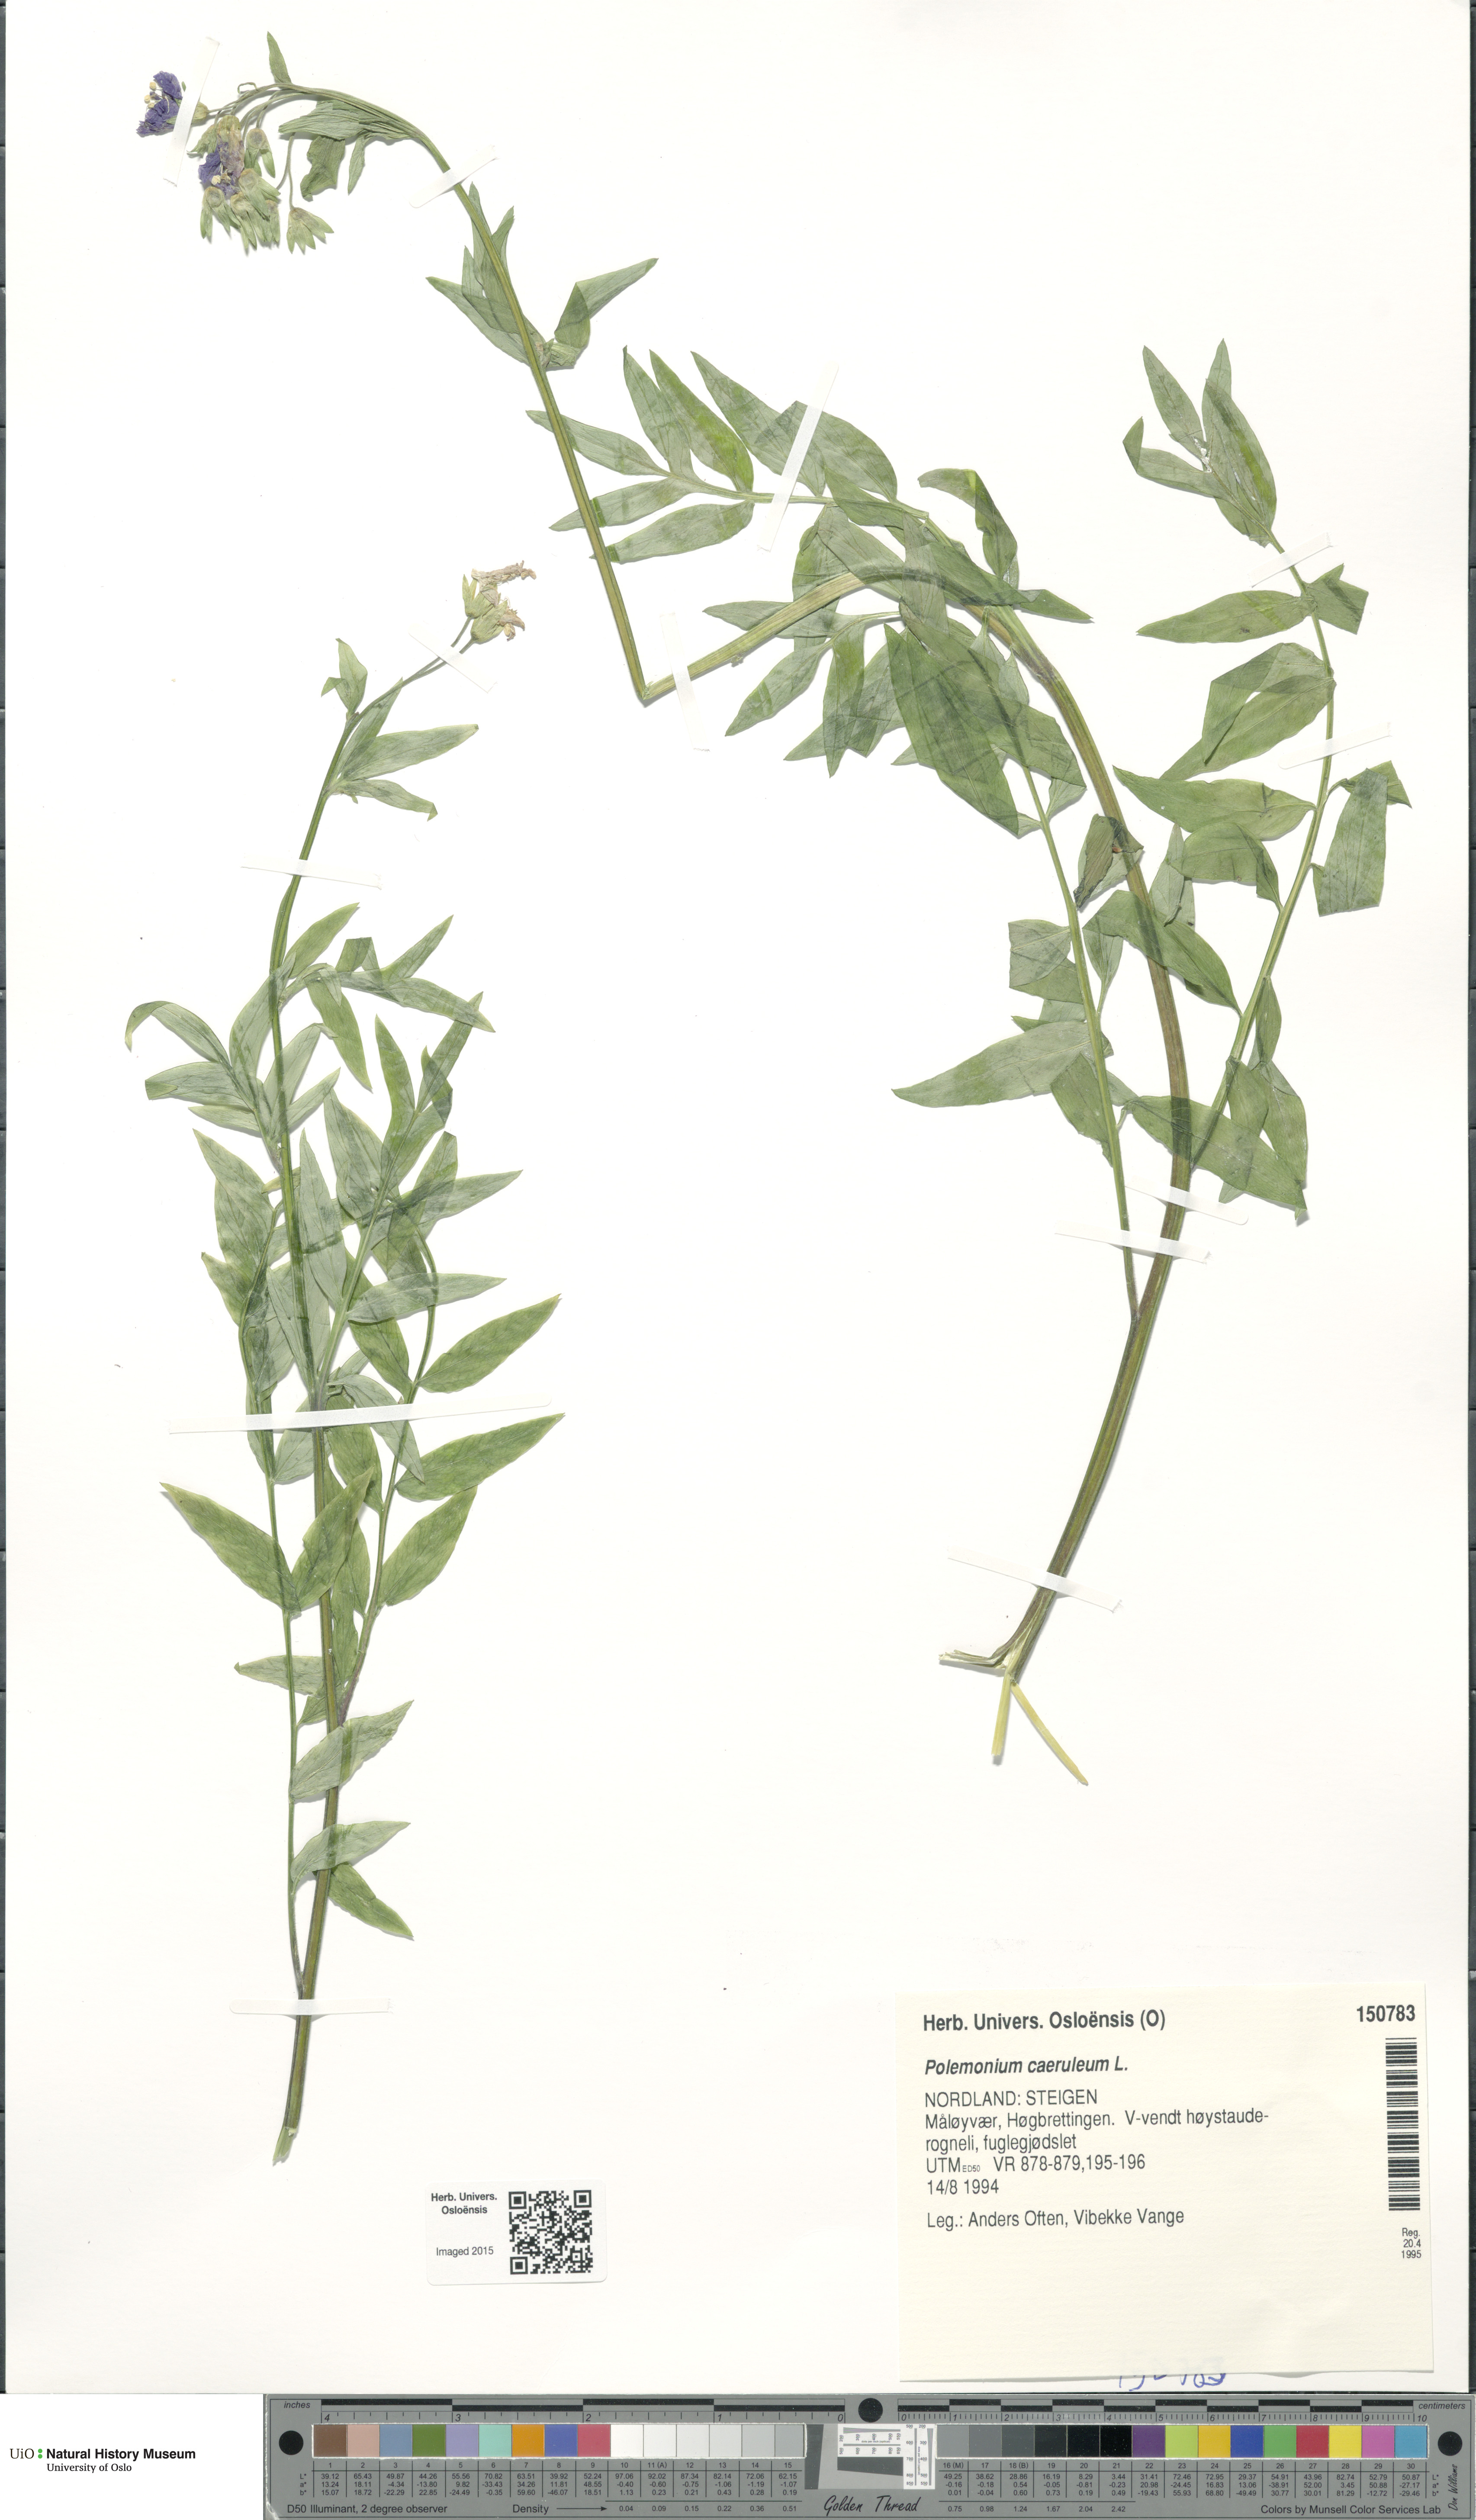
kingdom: Plantae
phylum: Tracheophyta
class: Magnoliopsida
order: Ericales
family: Polemoniaceae
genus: Polemonium
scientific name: Polemonium caeruleum
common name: Jacob's-ladder
